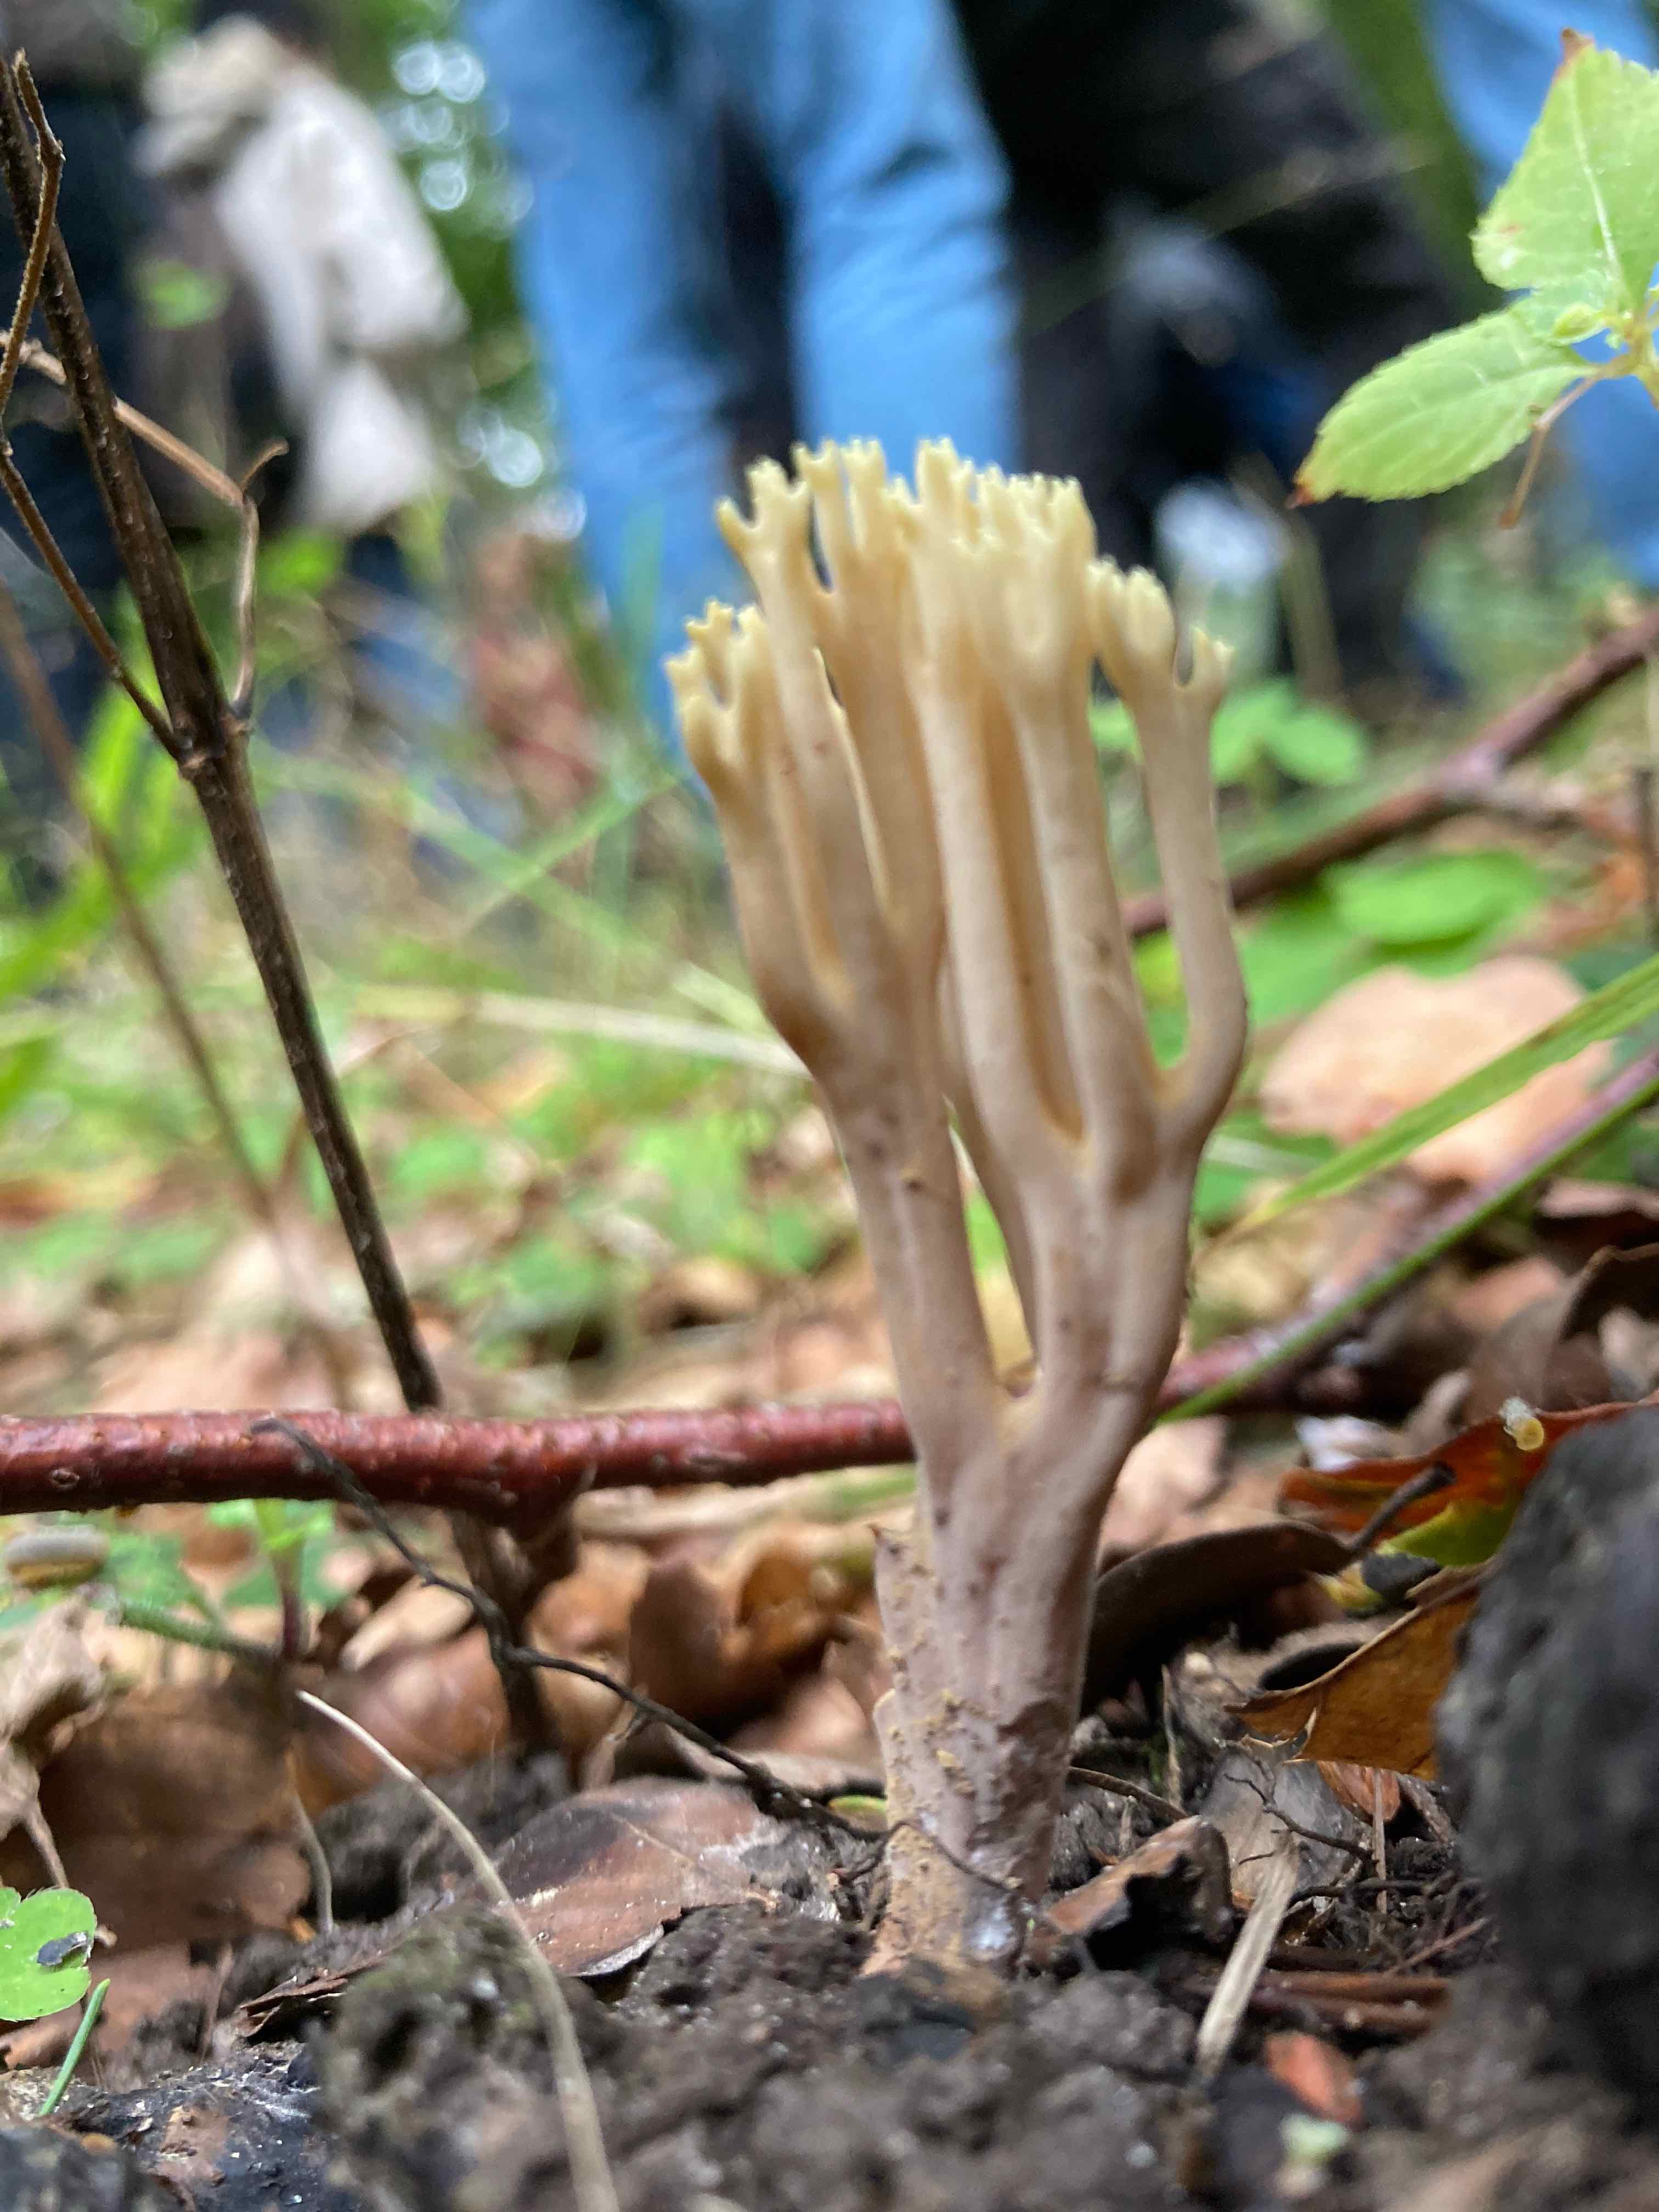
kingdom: Fungi
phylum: Basidiomycota
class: Agaricomycetes
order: Gomphales
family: Gomphaceae
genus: Ramaria
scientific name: Ramaria stricta
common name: rank koralsvamp
